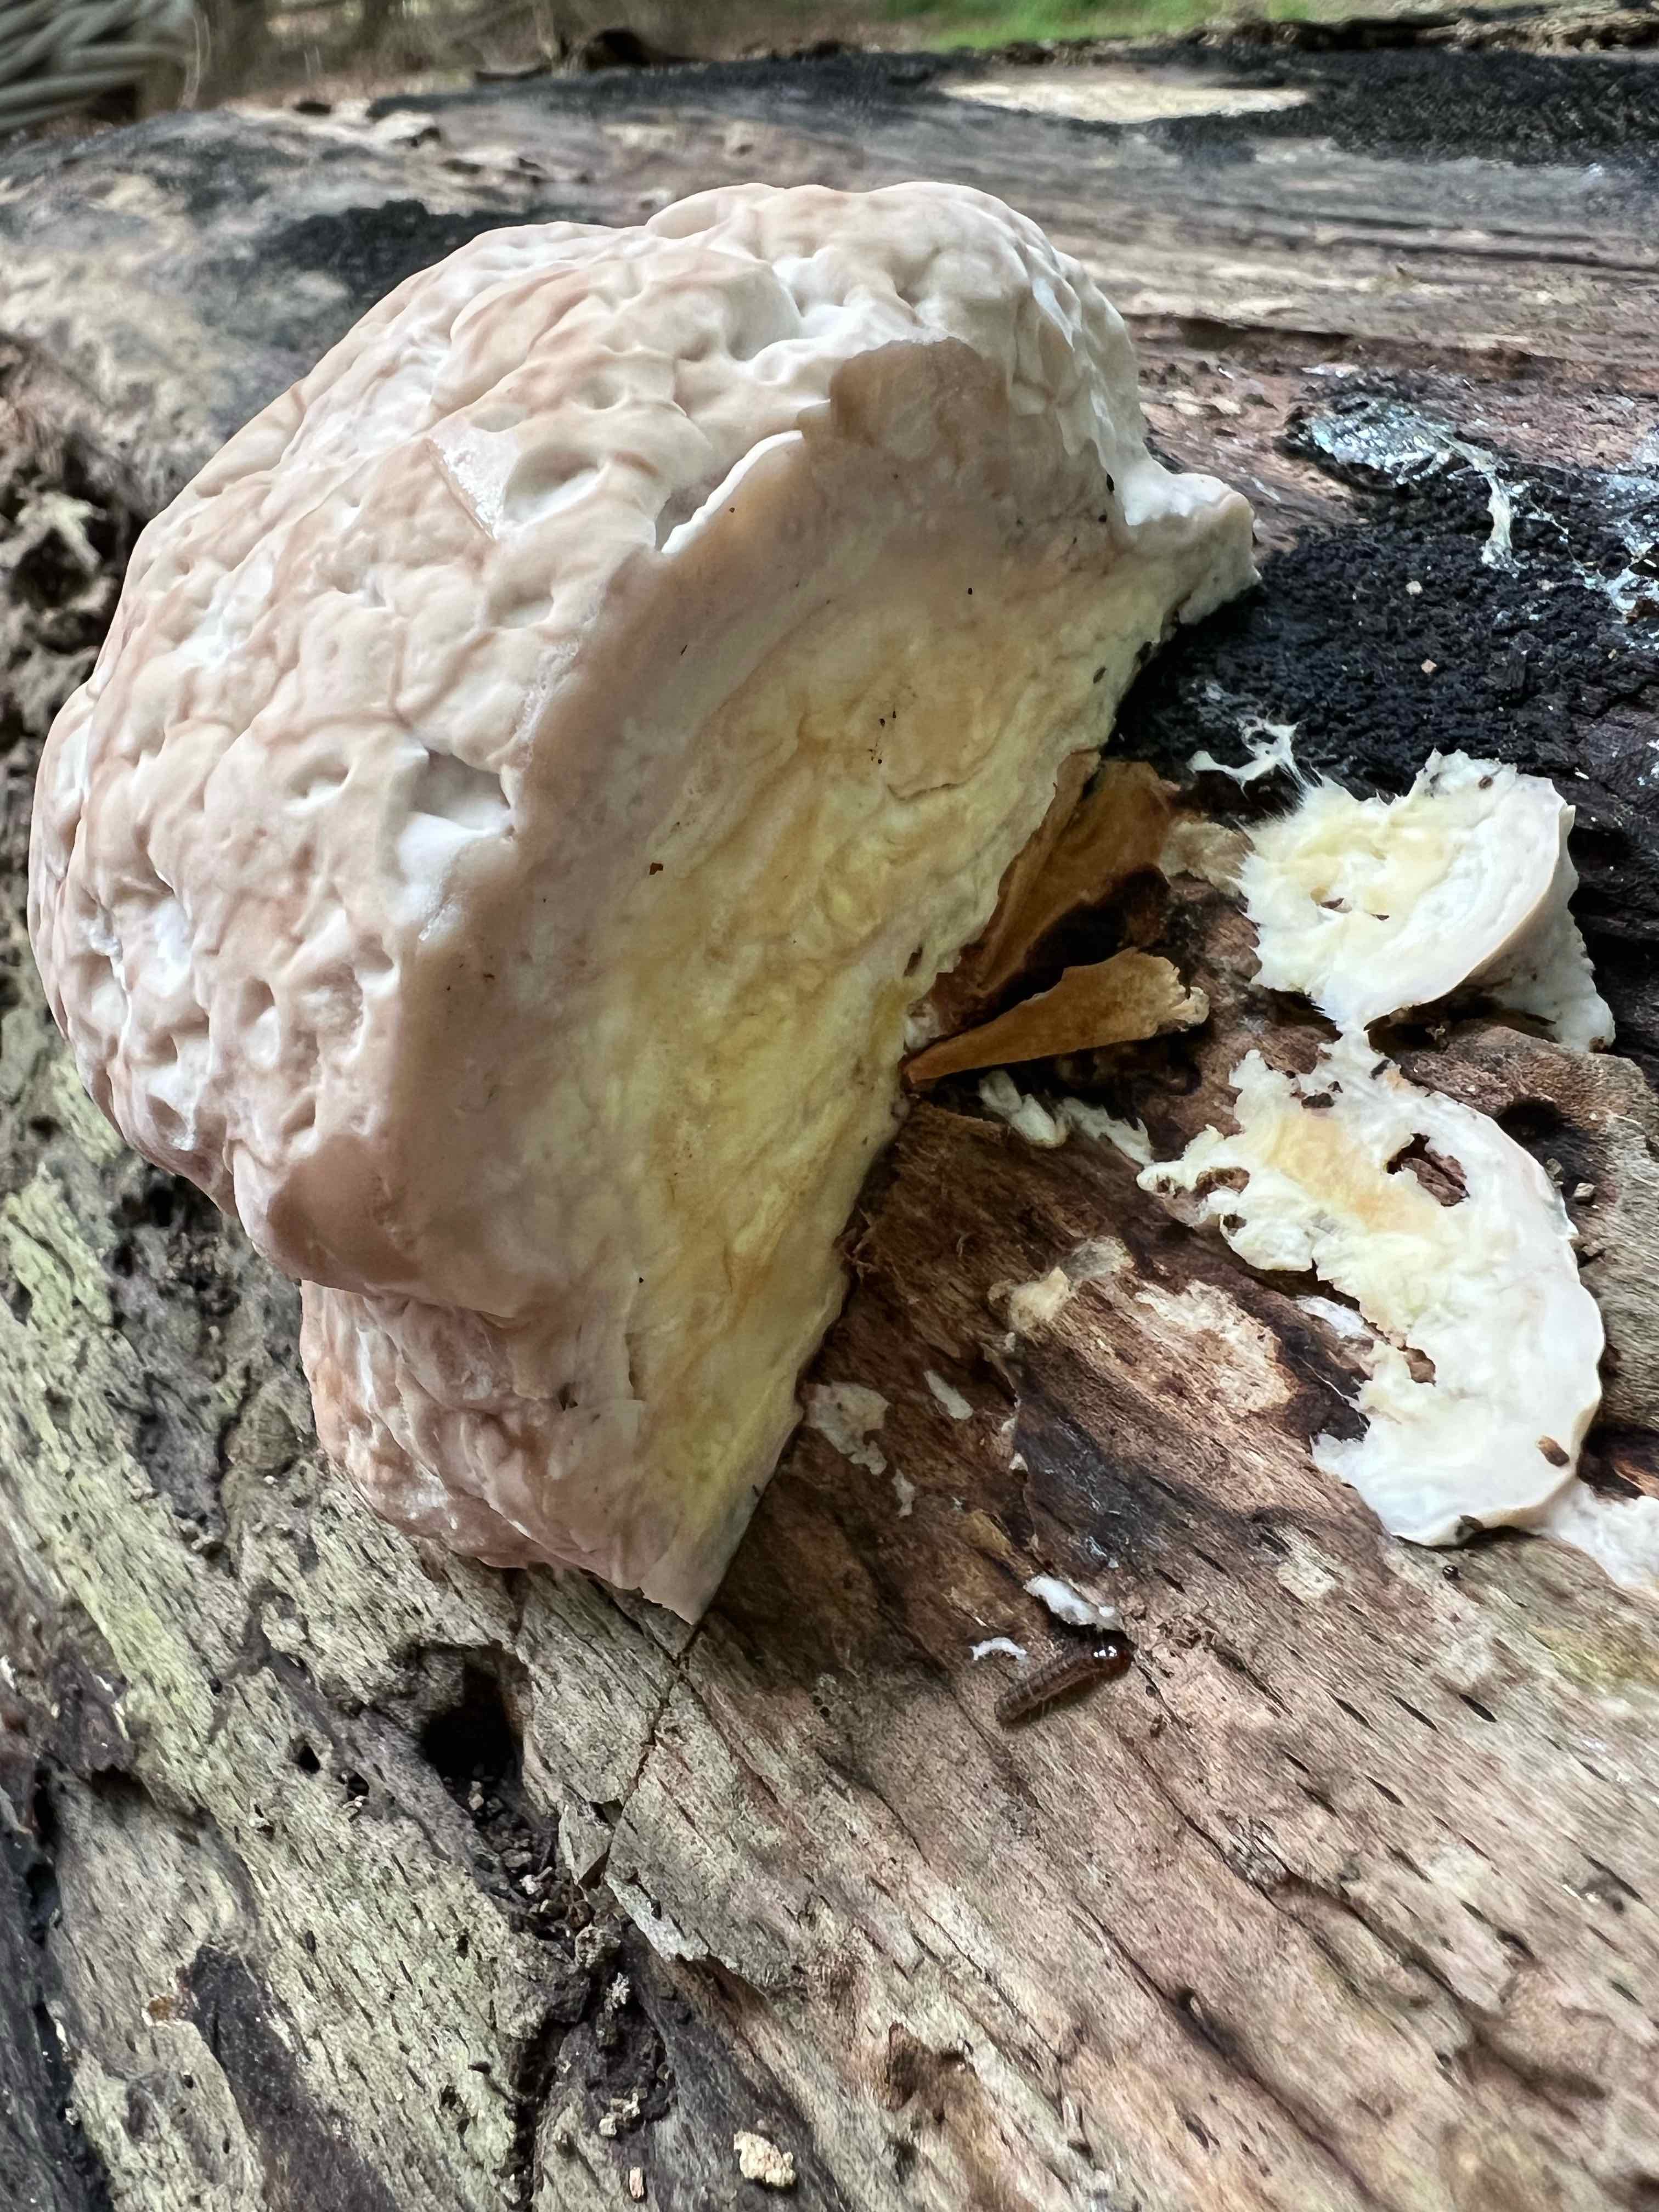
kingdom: Fungi
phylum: Basidiomycota
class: Agaricomycetes
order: Polyporales
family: Fomitopsidaceae
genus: Fomitopsis
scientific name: Fomitopsis pinicola
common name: randbæltet hovporesvamp
